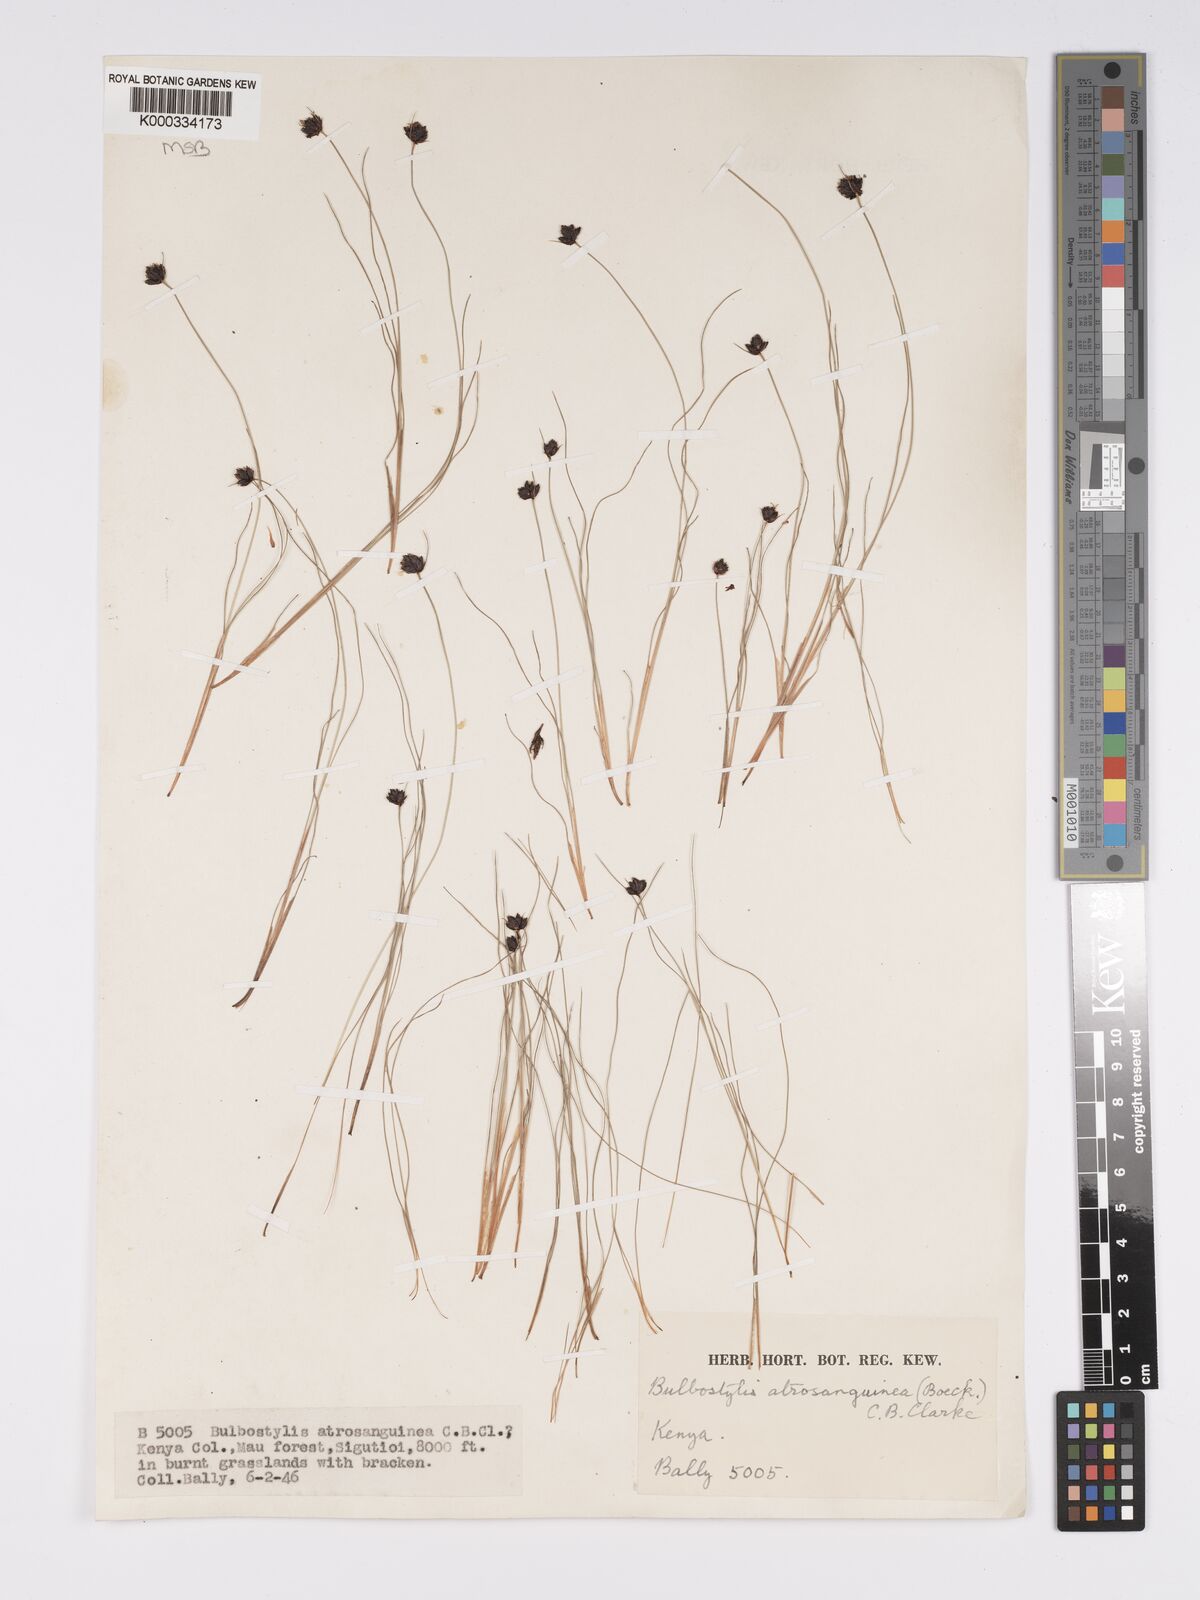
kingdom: Plantae
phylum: Tracheophyta
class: Liliopsida
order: Poales
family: Cyperaceae
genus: Bulbostylis
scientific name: Bulbostylis atrosanguinea
